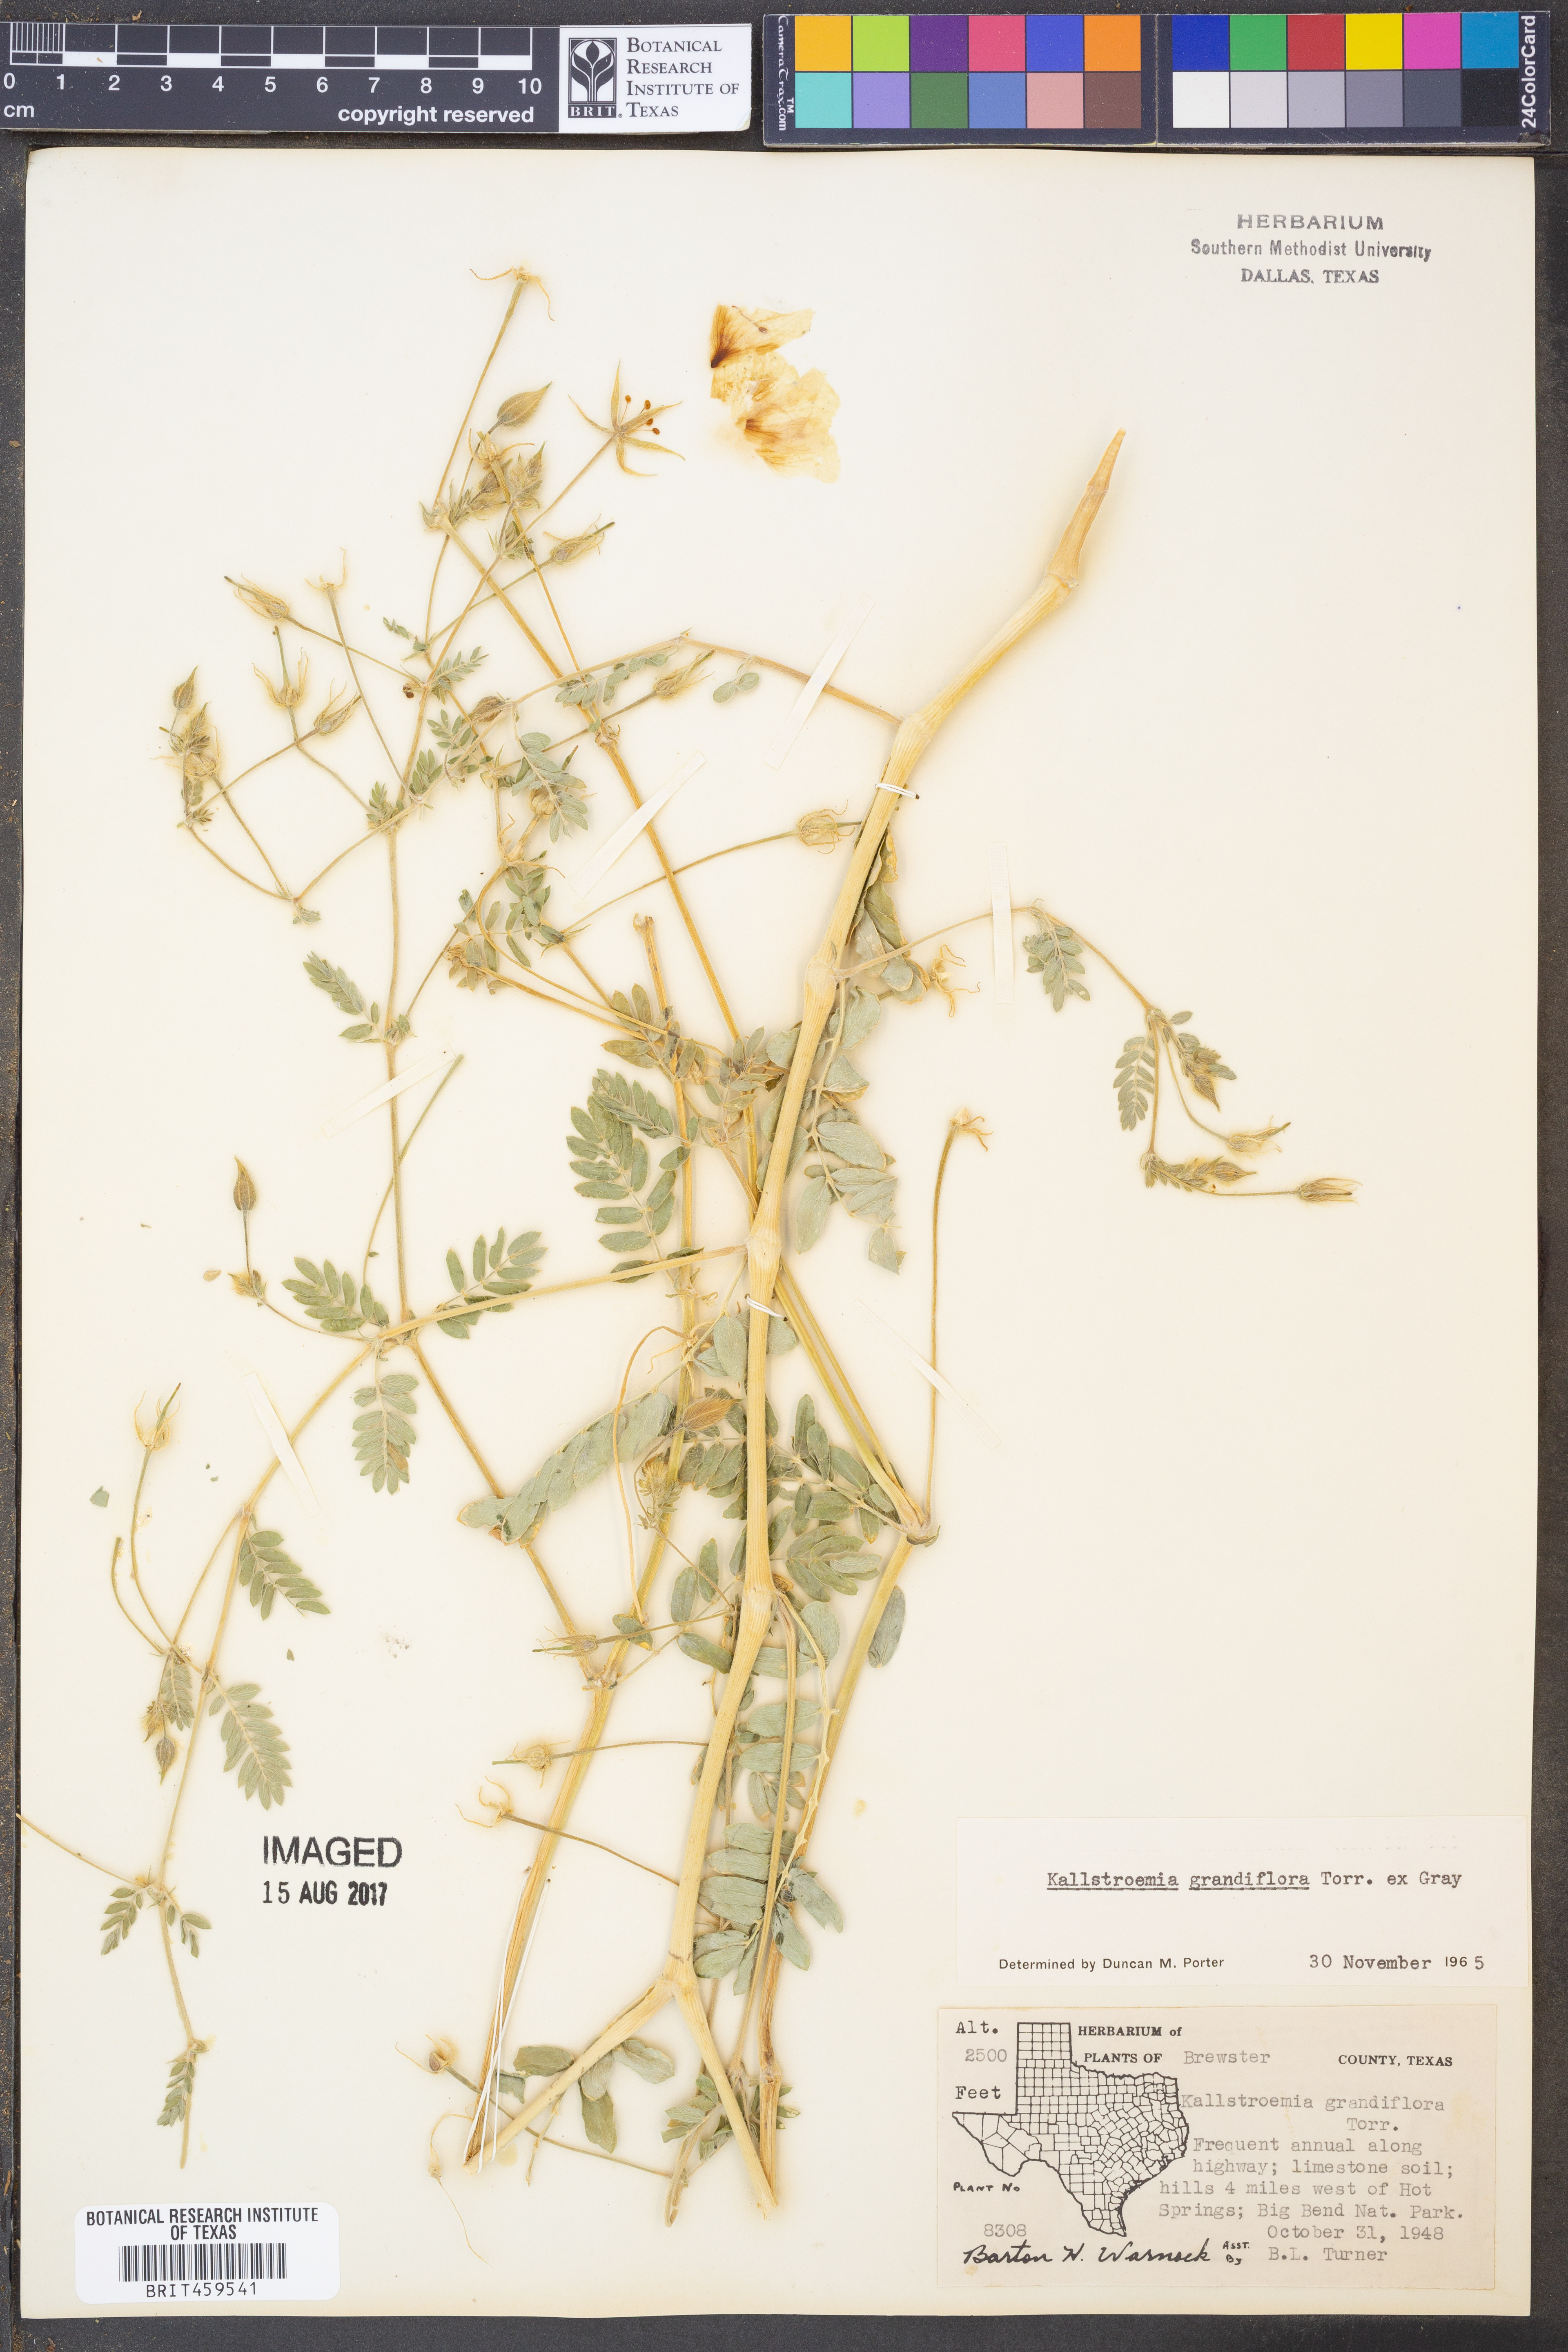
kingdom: Plantae
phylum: Tracheophyta
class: Magnoliopsida
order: Zygophyllales
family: Zygophyllaceae
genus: Kallstroemia
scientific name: Kallstroemia grandiflora
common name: Arizona-poppy
